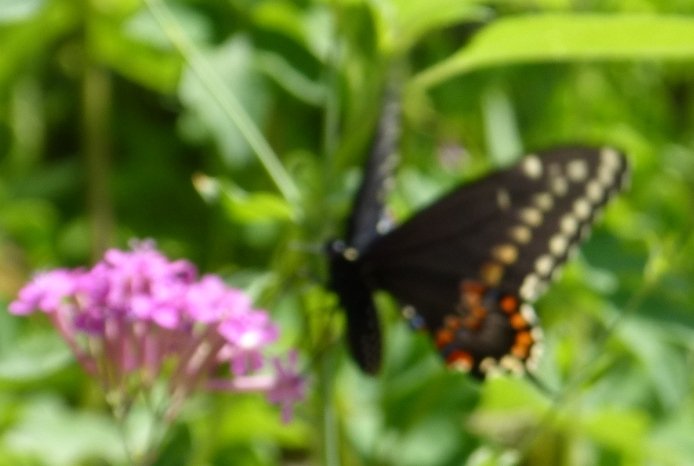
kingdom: Animalia
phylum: Arthropoda
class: Insecta
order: Lepidoptera
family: Papilionidae
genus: Papilio
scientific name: Papilio polyxenes
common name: Black Swallowtail
